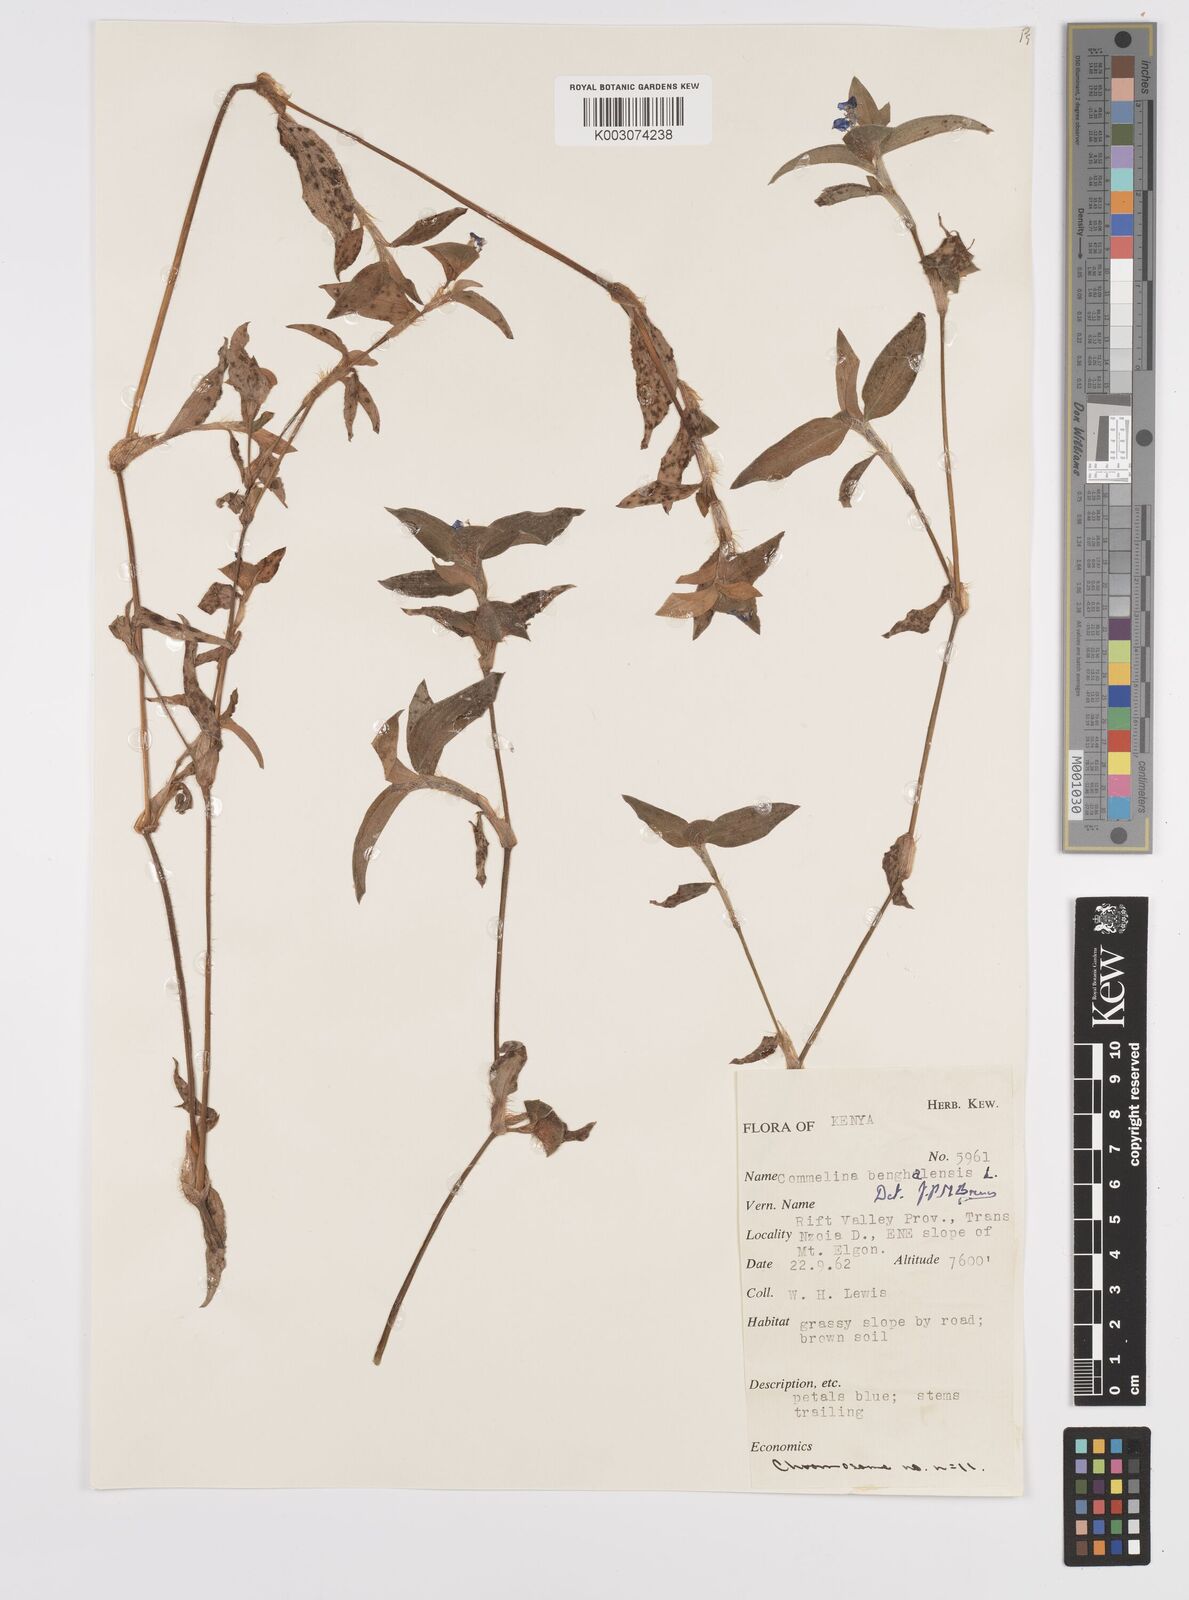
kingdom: Plantae
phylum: Tracheophyta
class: Liliopsida
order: Commelinales
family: Commelinaceae
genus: Commelina
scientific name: Commelina benghalensis
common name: Jio
